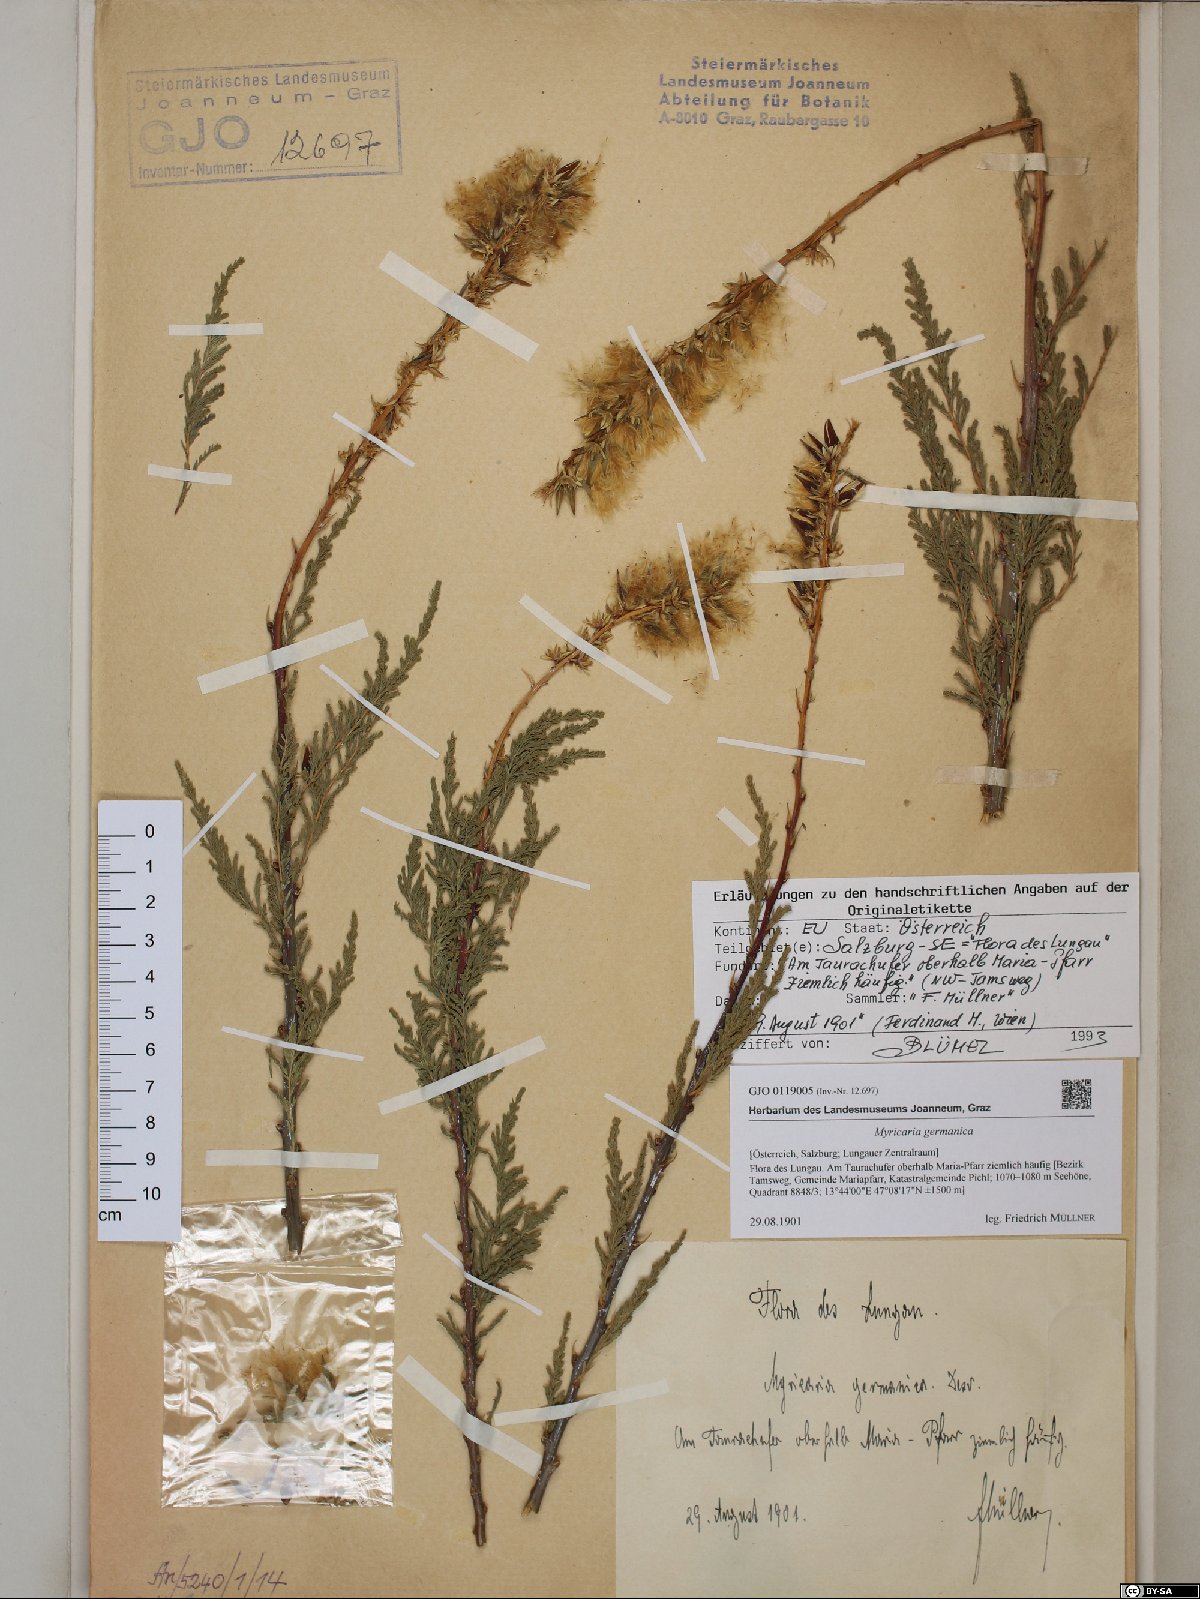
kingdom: Plantae
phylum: Tracheophyta
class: Magnoliopsida
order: Caryophyllales
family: Tamaricaceae
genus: Myricaria
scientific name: Myricaria germanica
